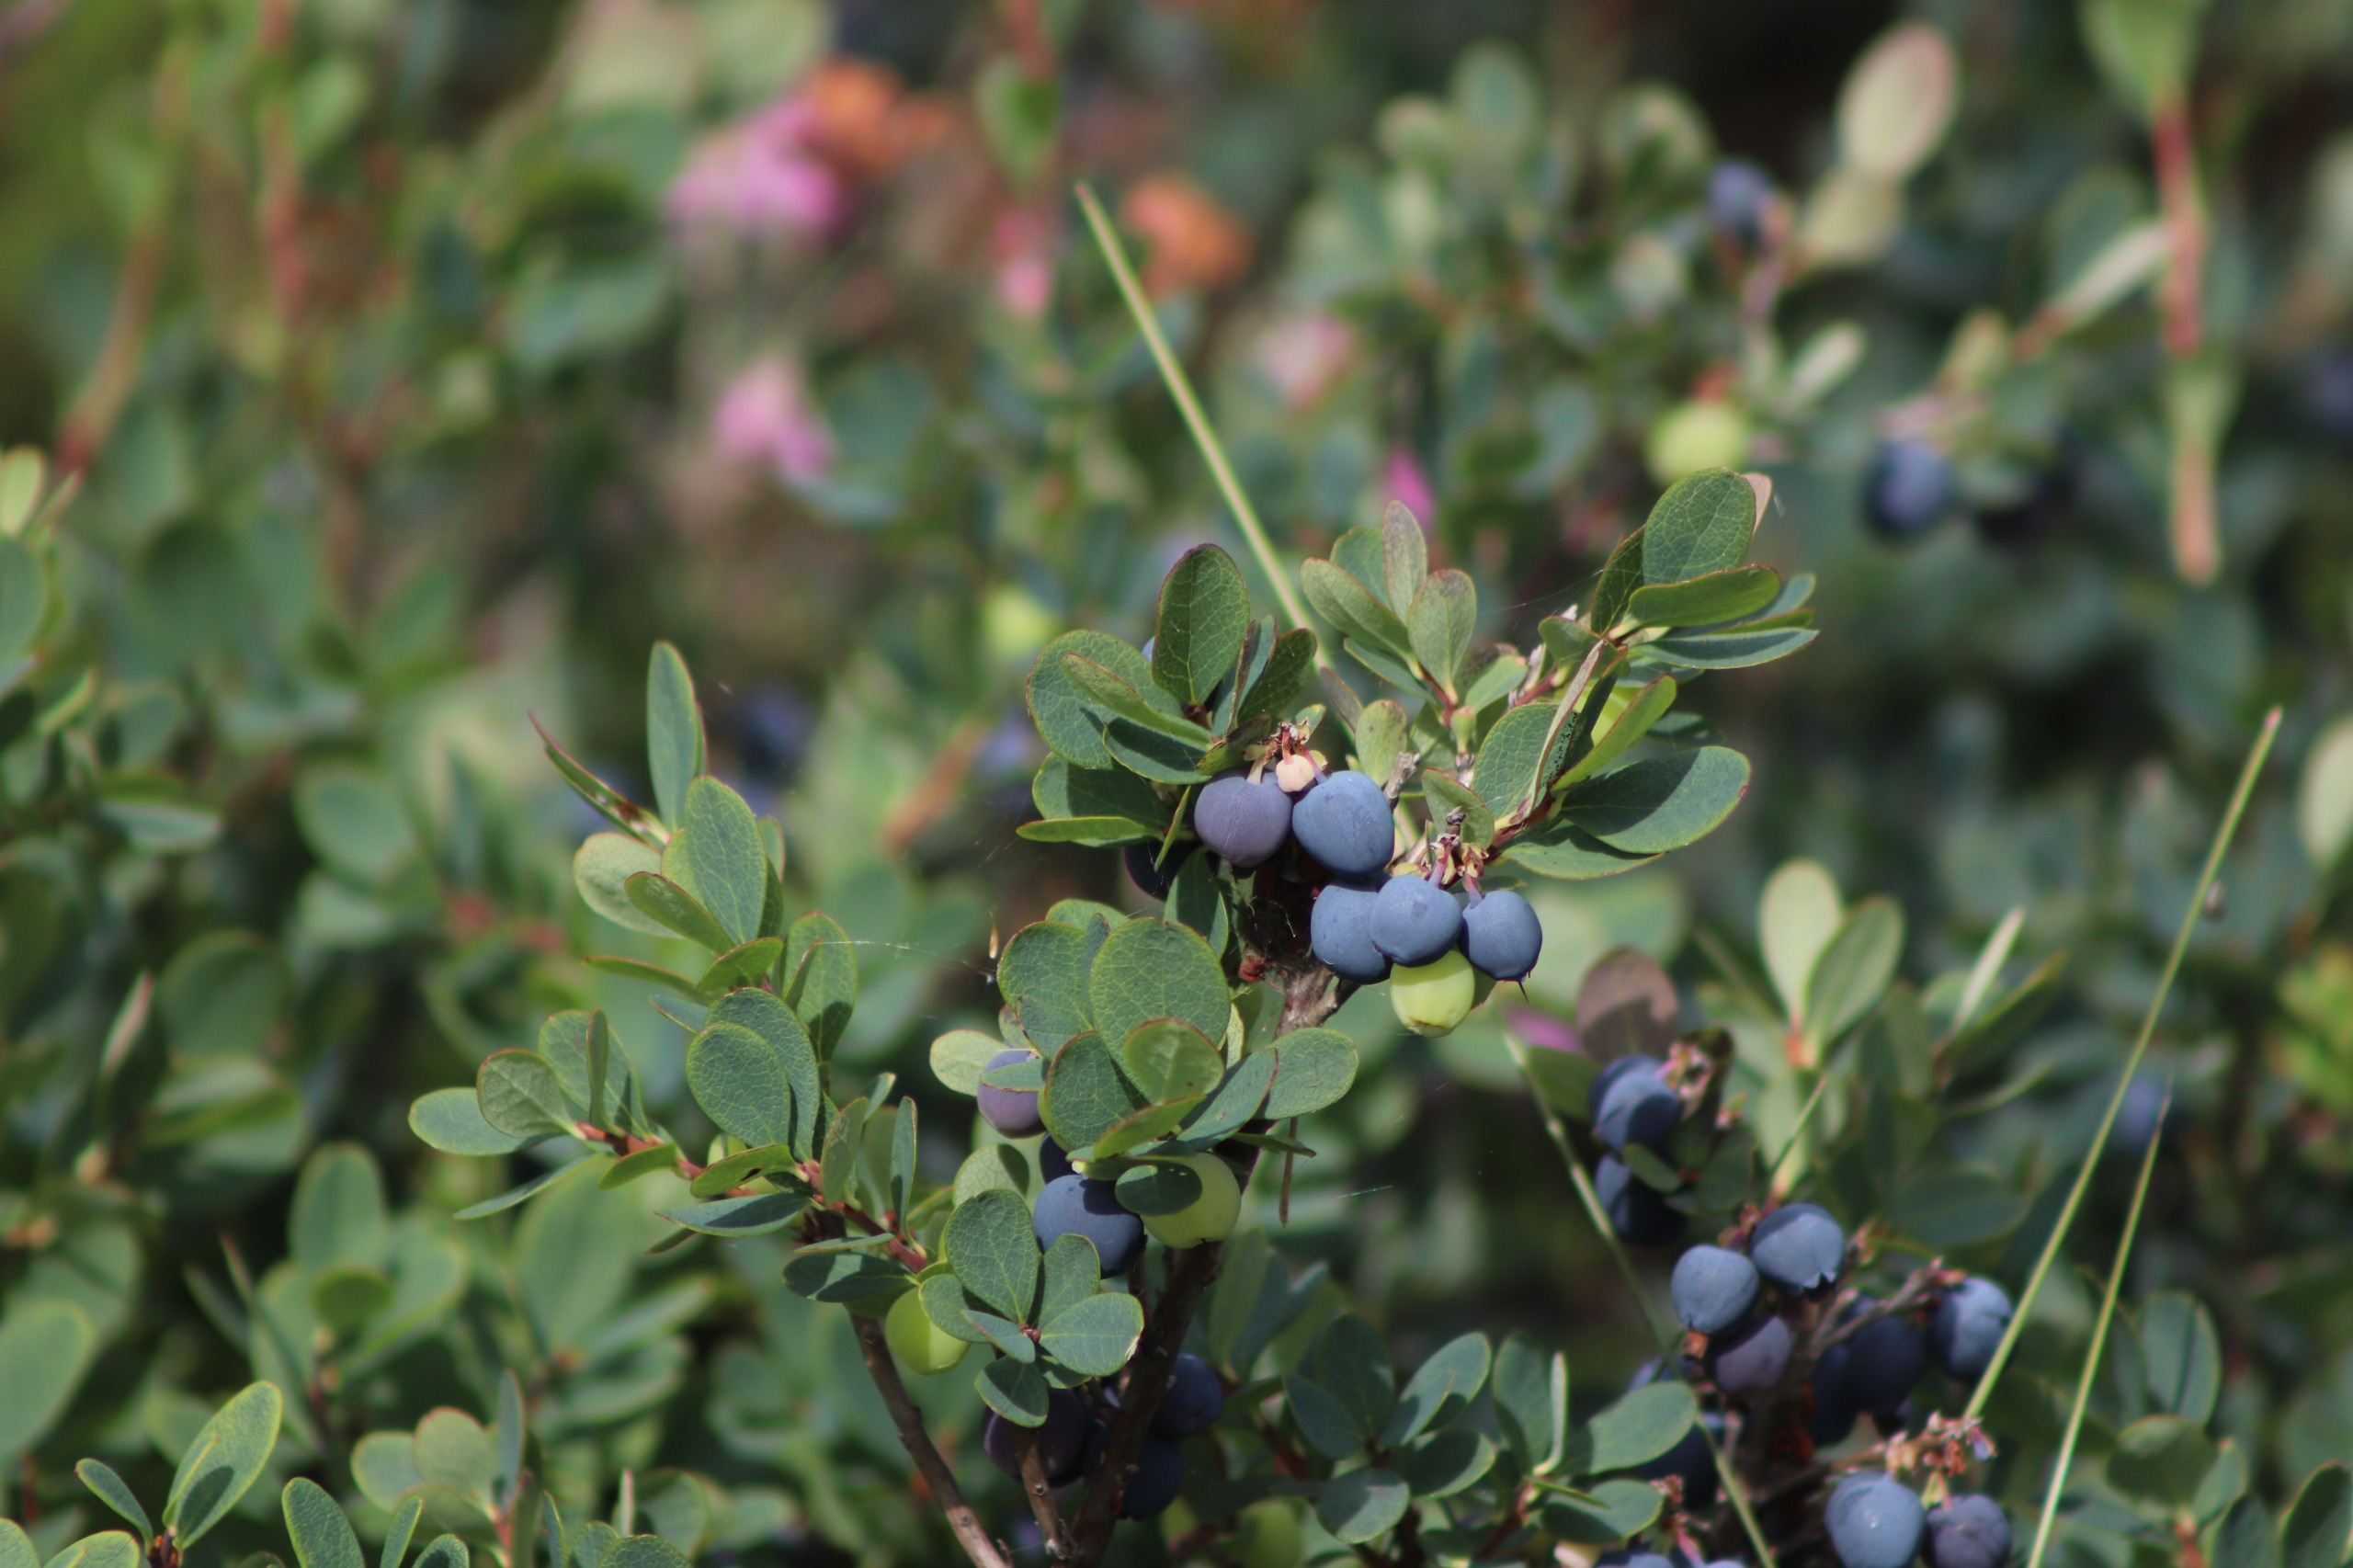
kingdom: Plantae
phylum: Tracheophyta
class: Magnoliopsida
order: Ericales
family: Ericaceae
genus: Vaccinium
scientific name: Vaccinium uliginosum
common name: Mose-bølle
